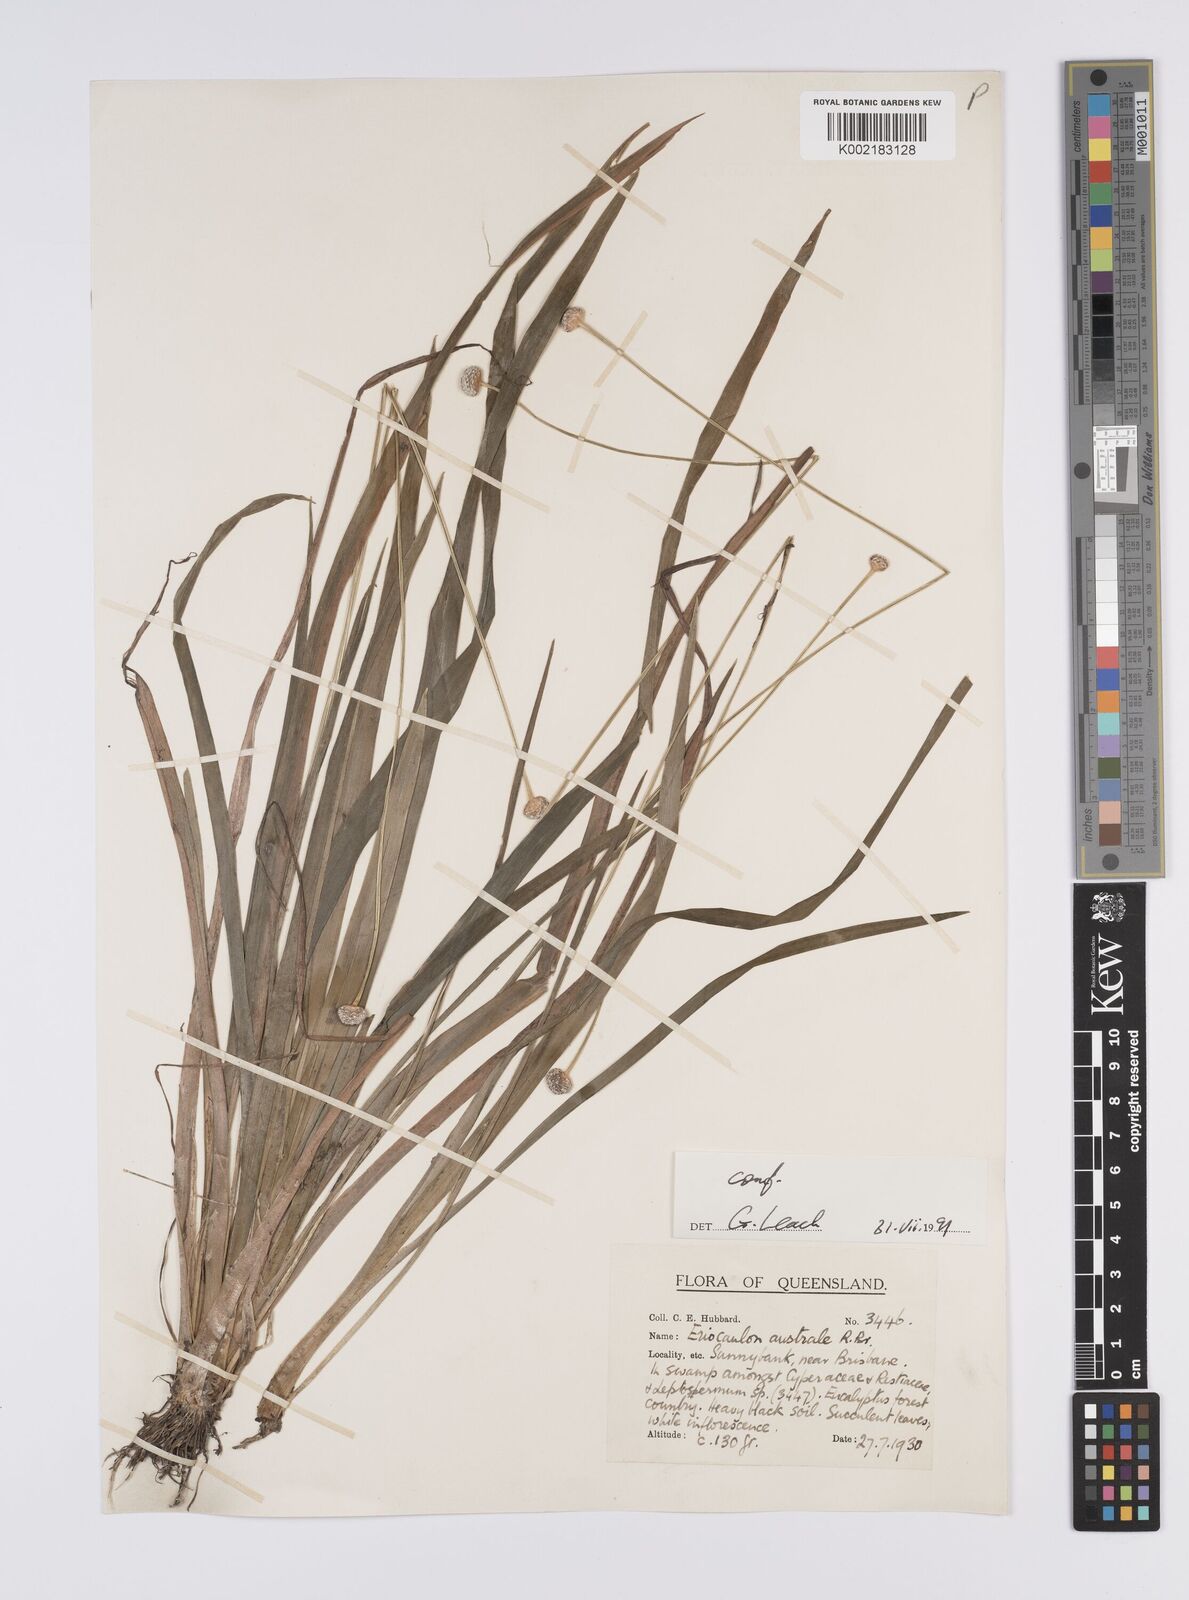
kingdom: Plantae
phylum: Tracheophyta
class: Liliopsida
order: Poales
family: Eriocaulaceae
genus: Eriocaulon
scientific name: Eriocaulon australe
